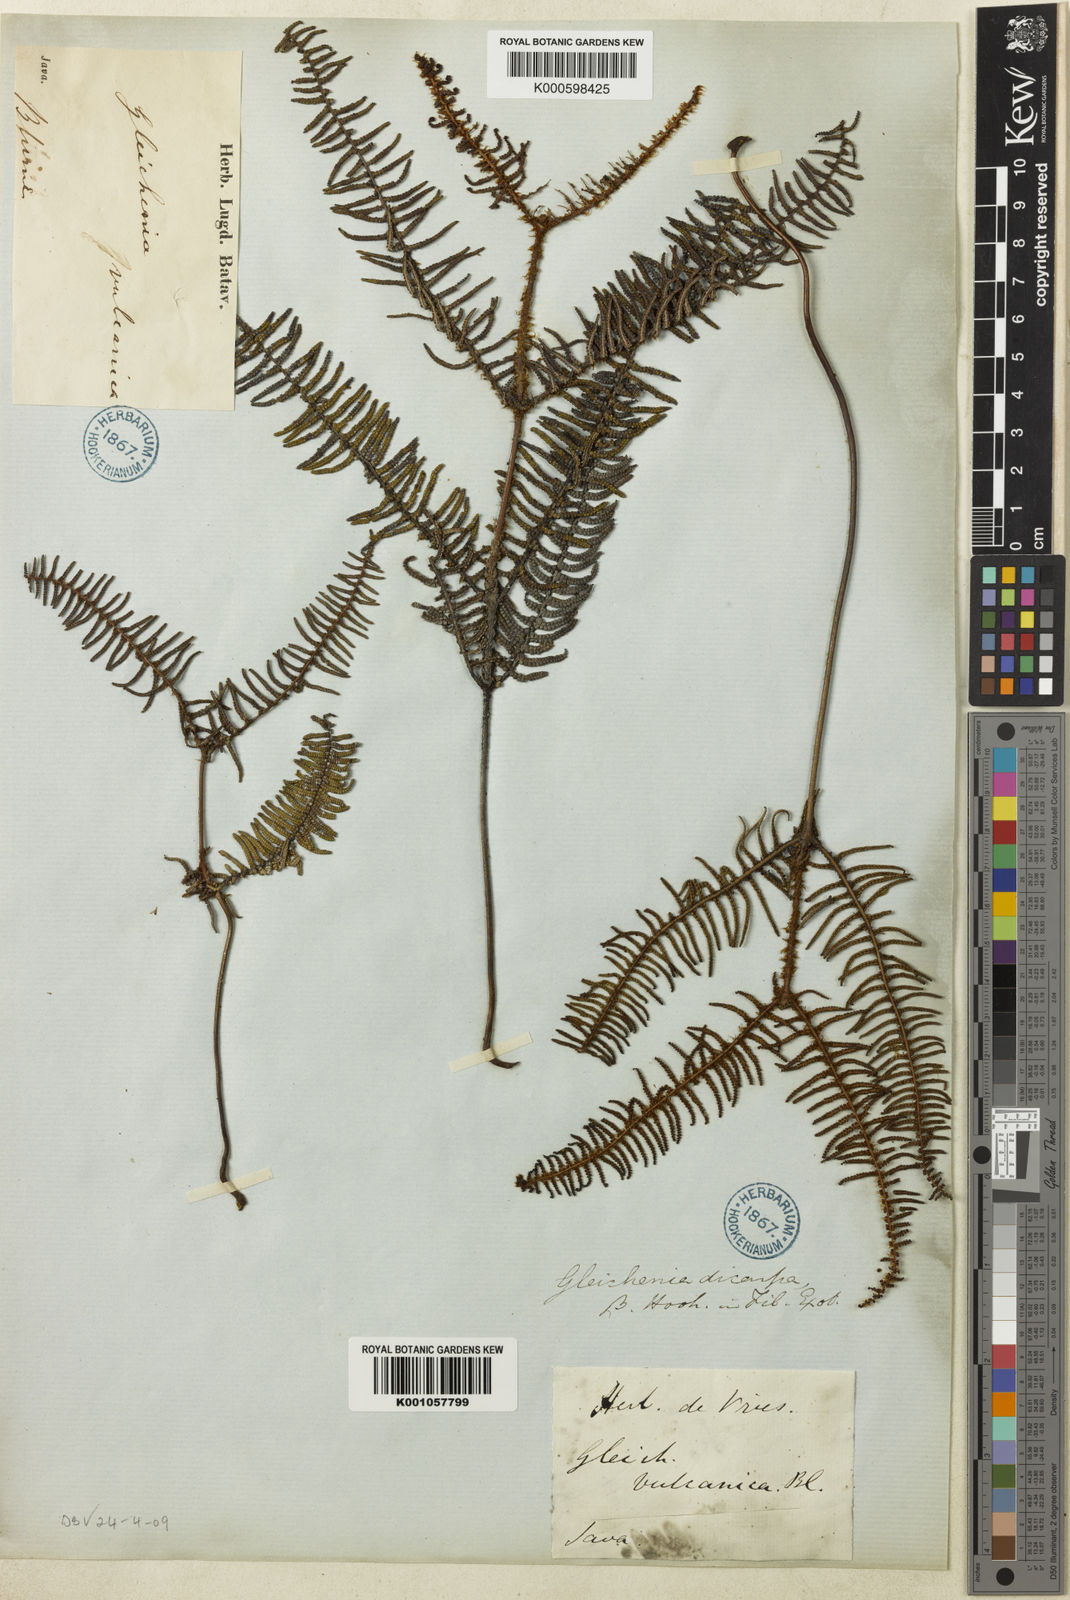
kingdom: Plantae
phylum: Tracheophyta
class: Polypodiopsida
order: Gleicheniales
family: Gleicheniaceae
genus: Gleichenia
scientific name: Gleichenia vulcanica
